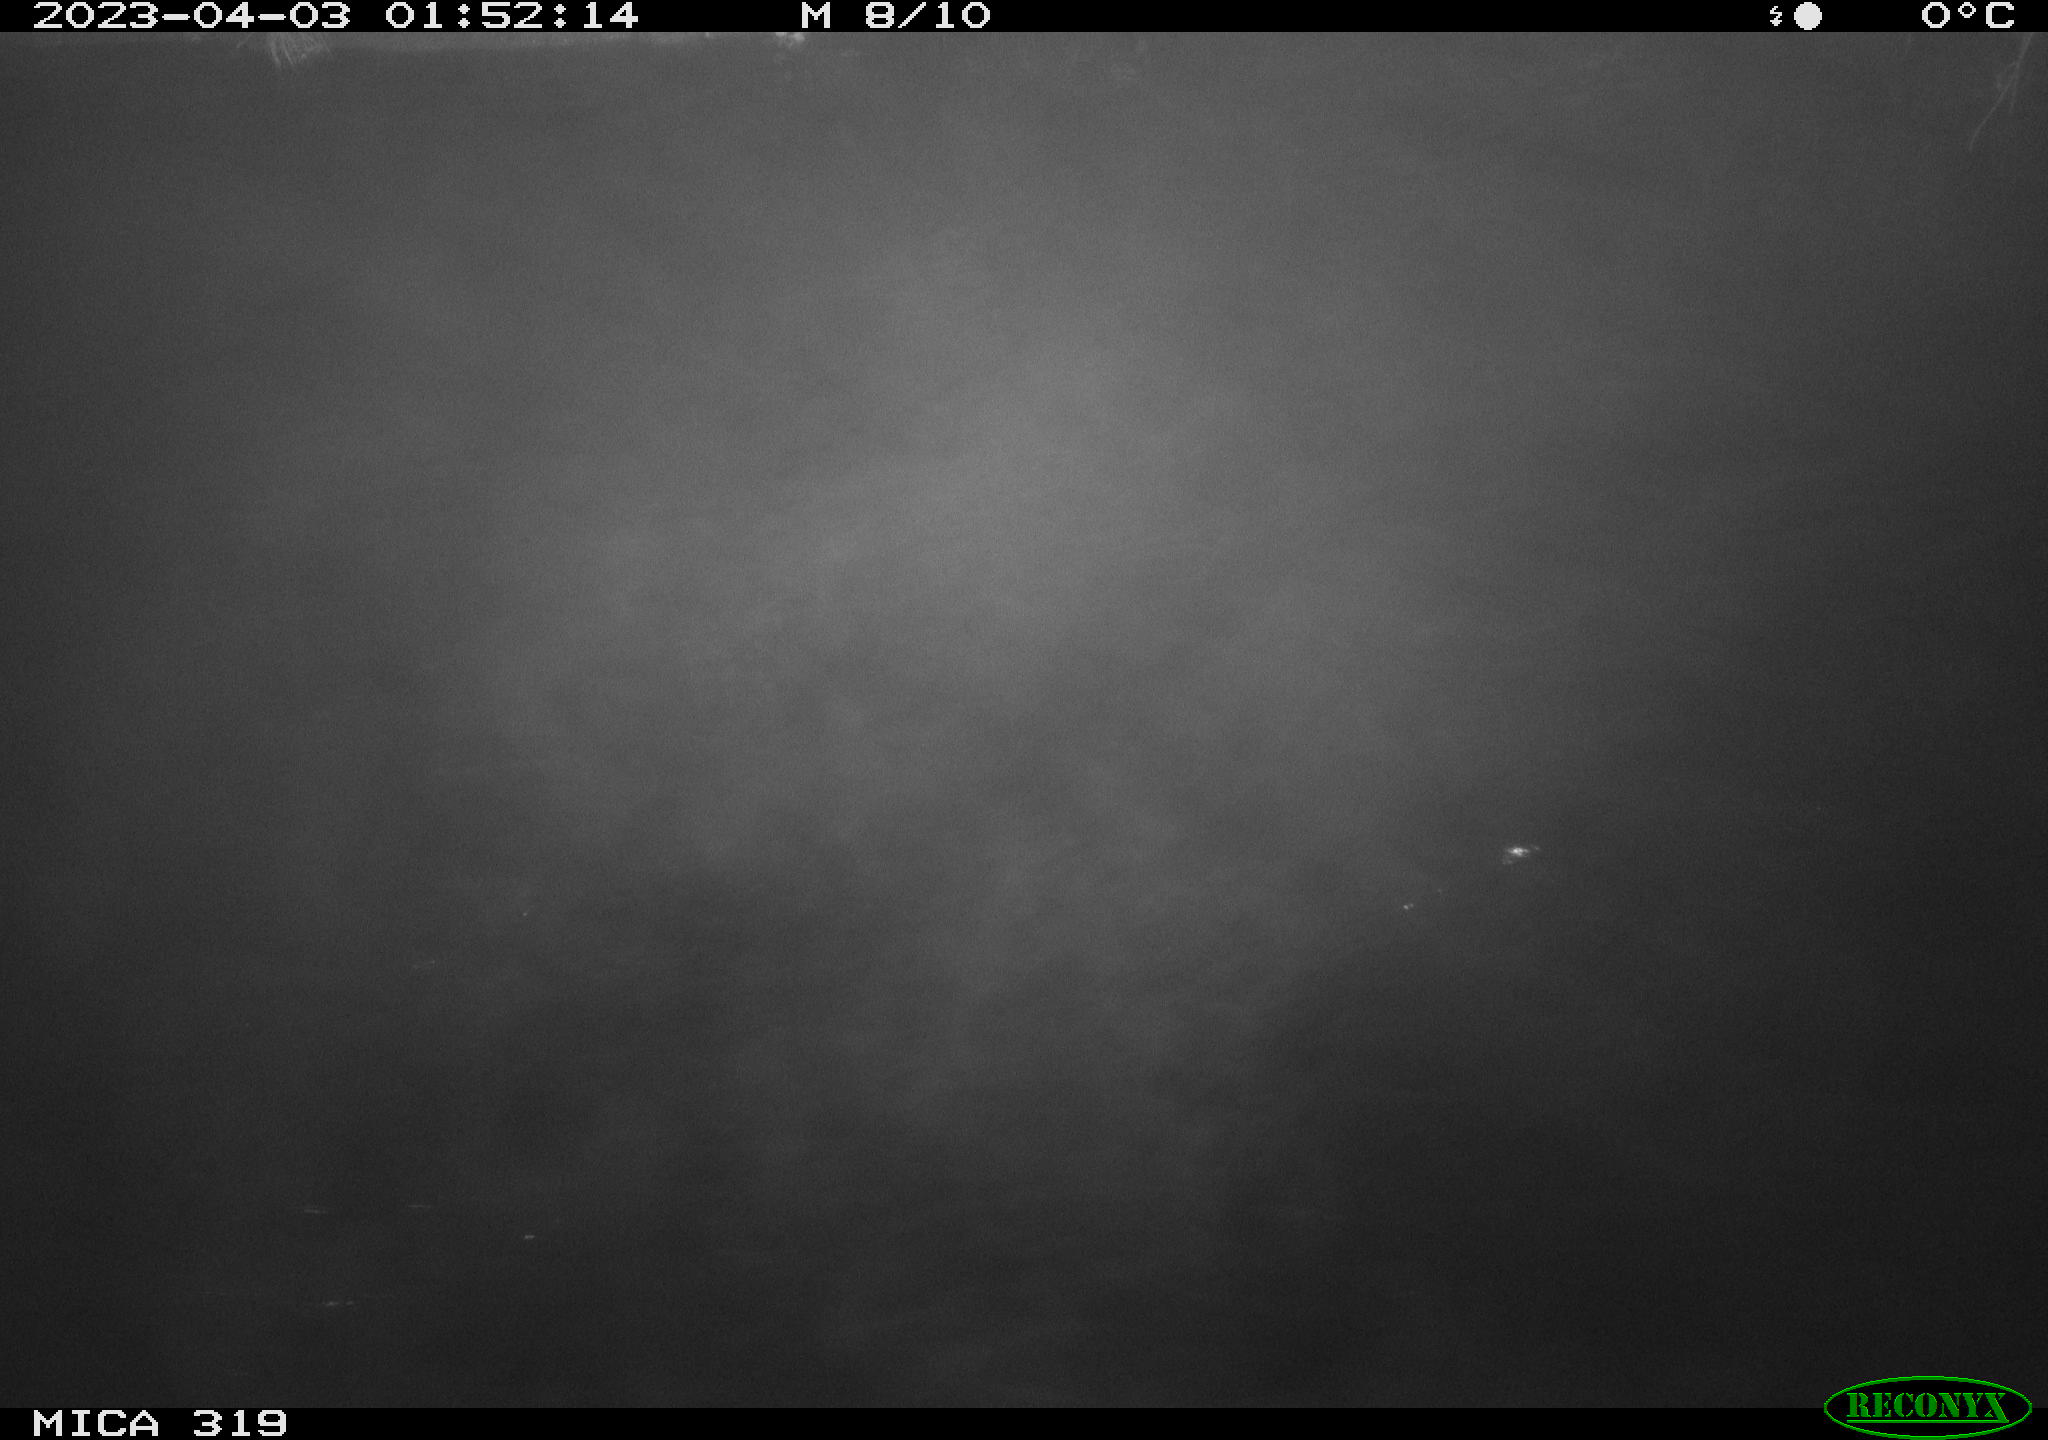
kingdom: Animalia
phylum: Chordata
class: Aves
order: Anseriformes
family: Anatidae
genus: Anas
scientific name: Anas
